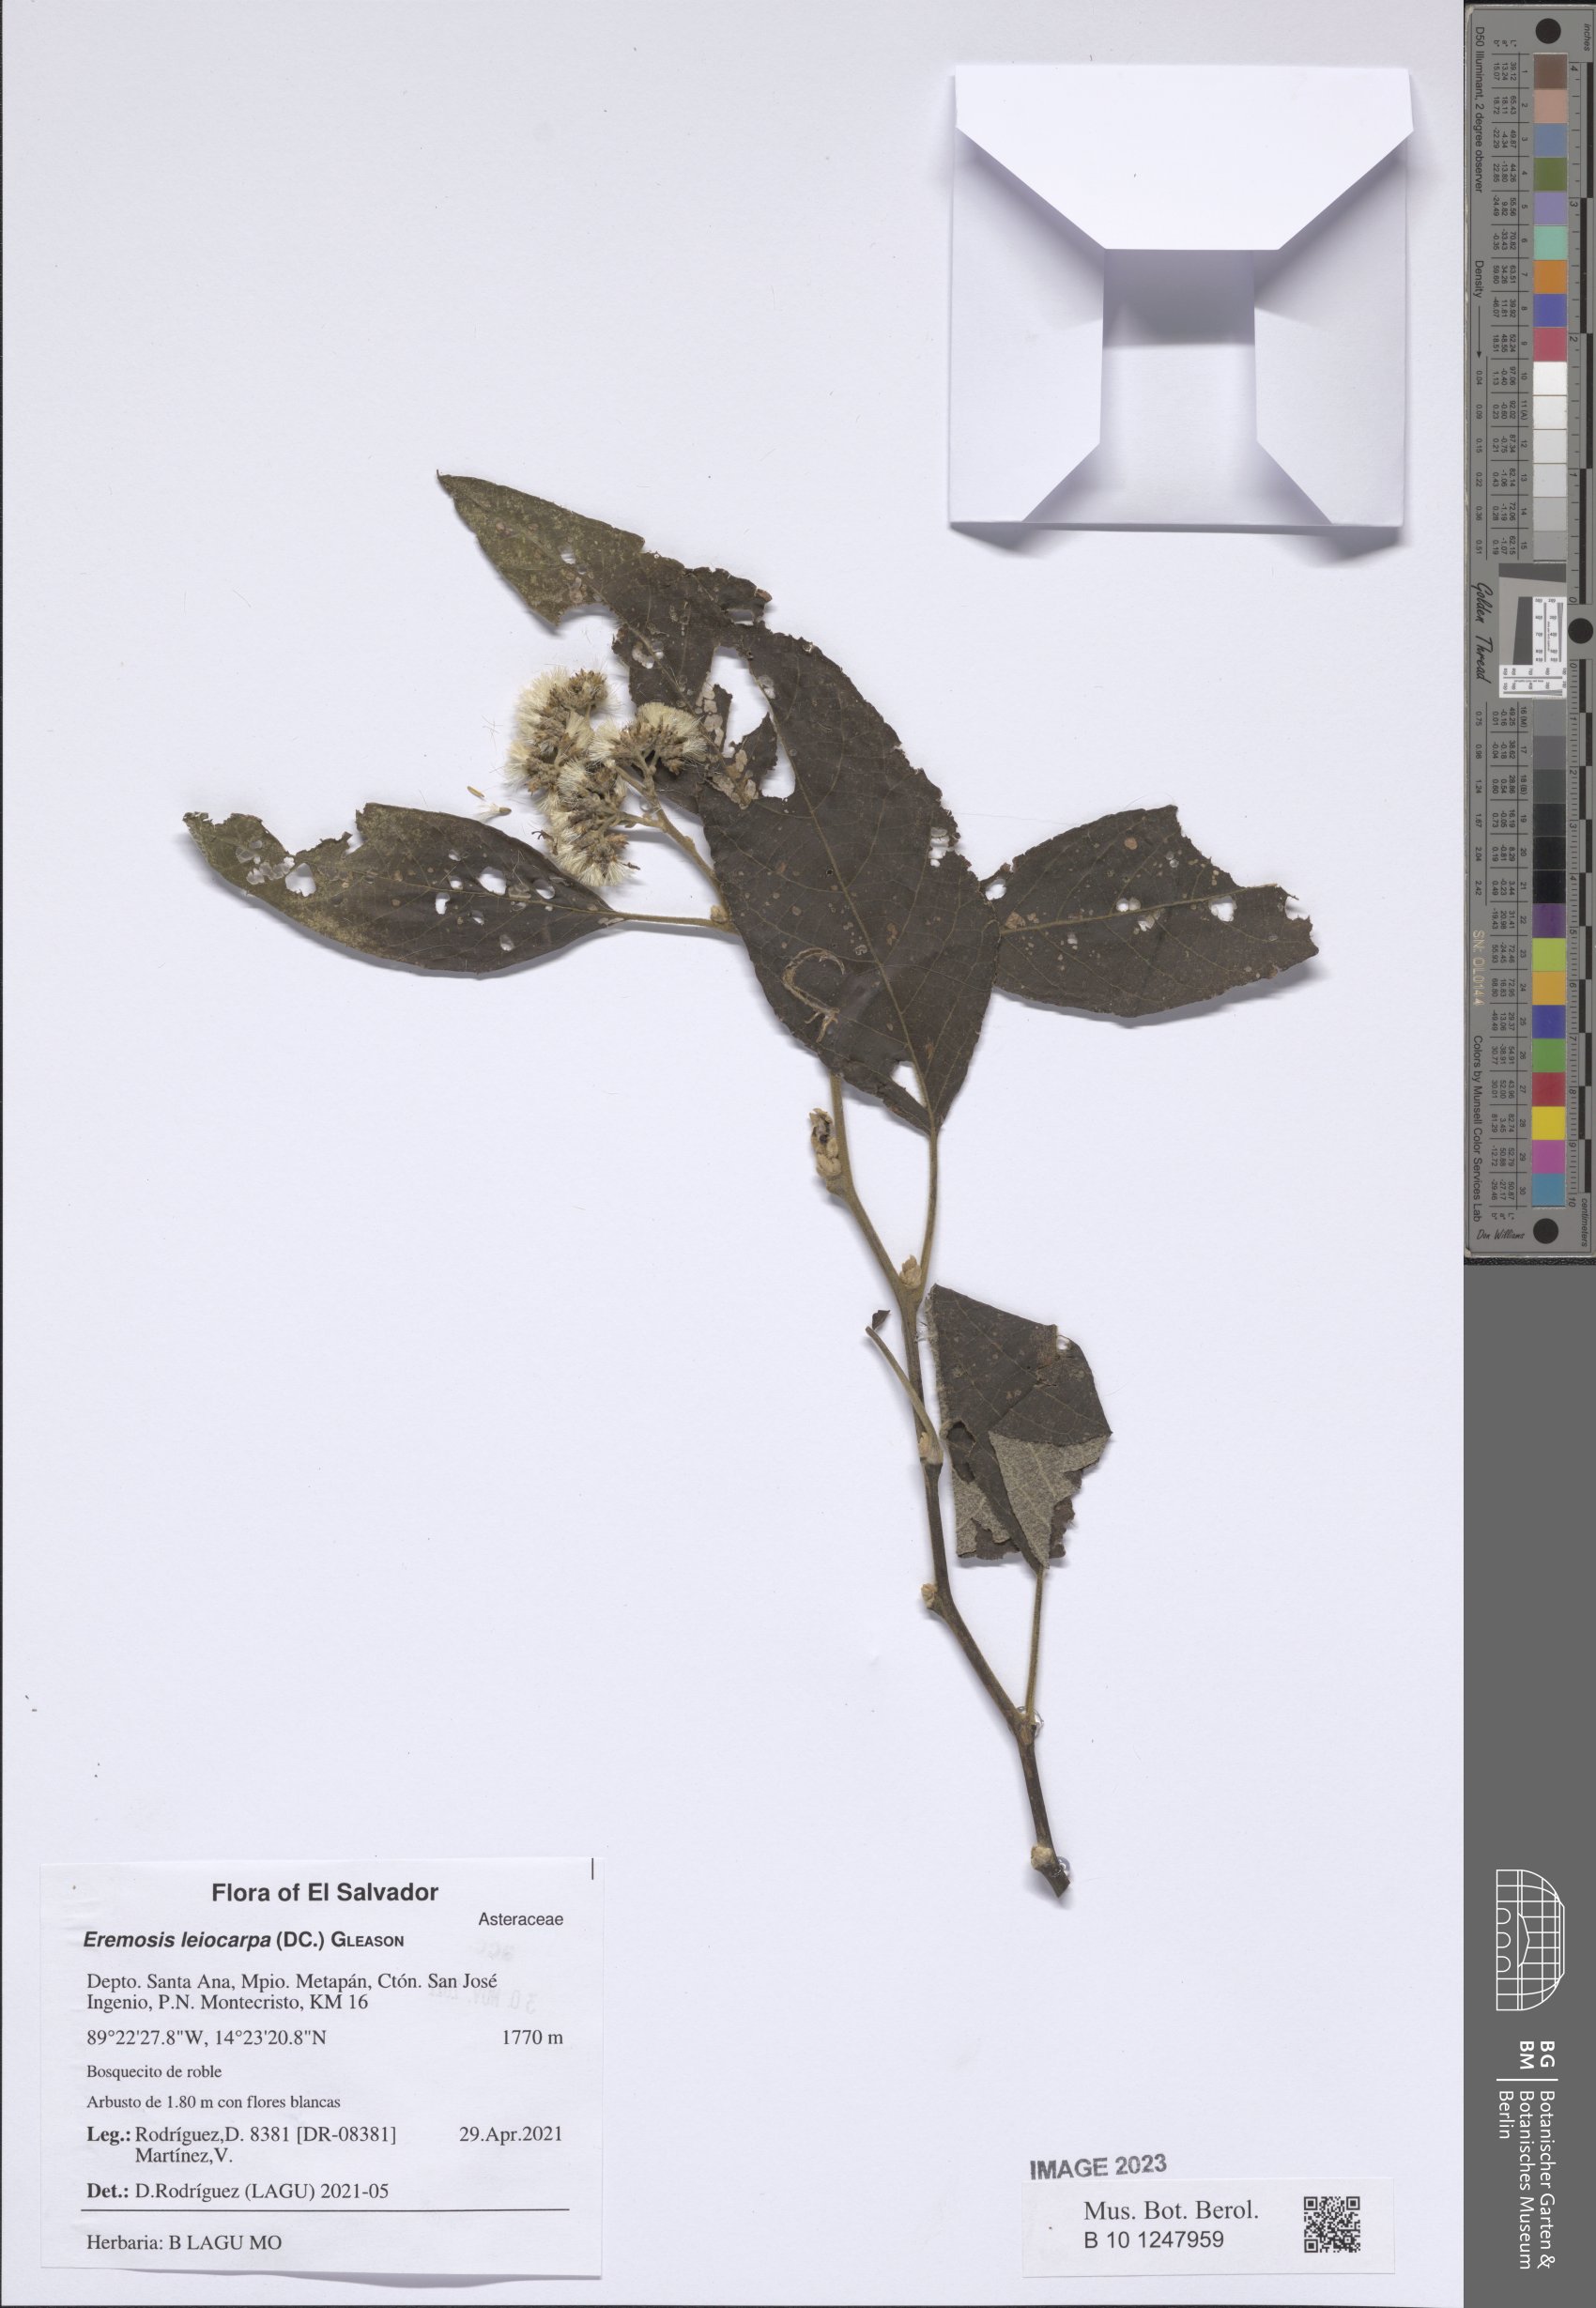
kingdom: Plantae
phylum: Tracheophyta
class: Magnoliopsida
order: Asterales
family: Asteraceae
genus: Eremosis
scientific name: Eremosis leiocarpa
